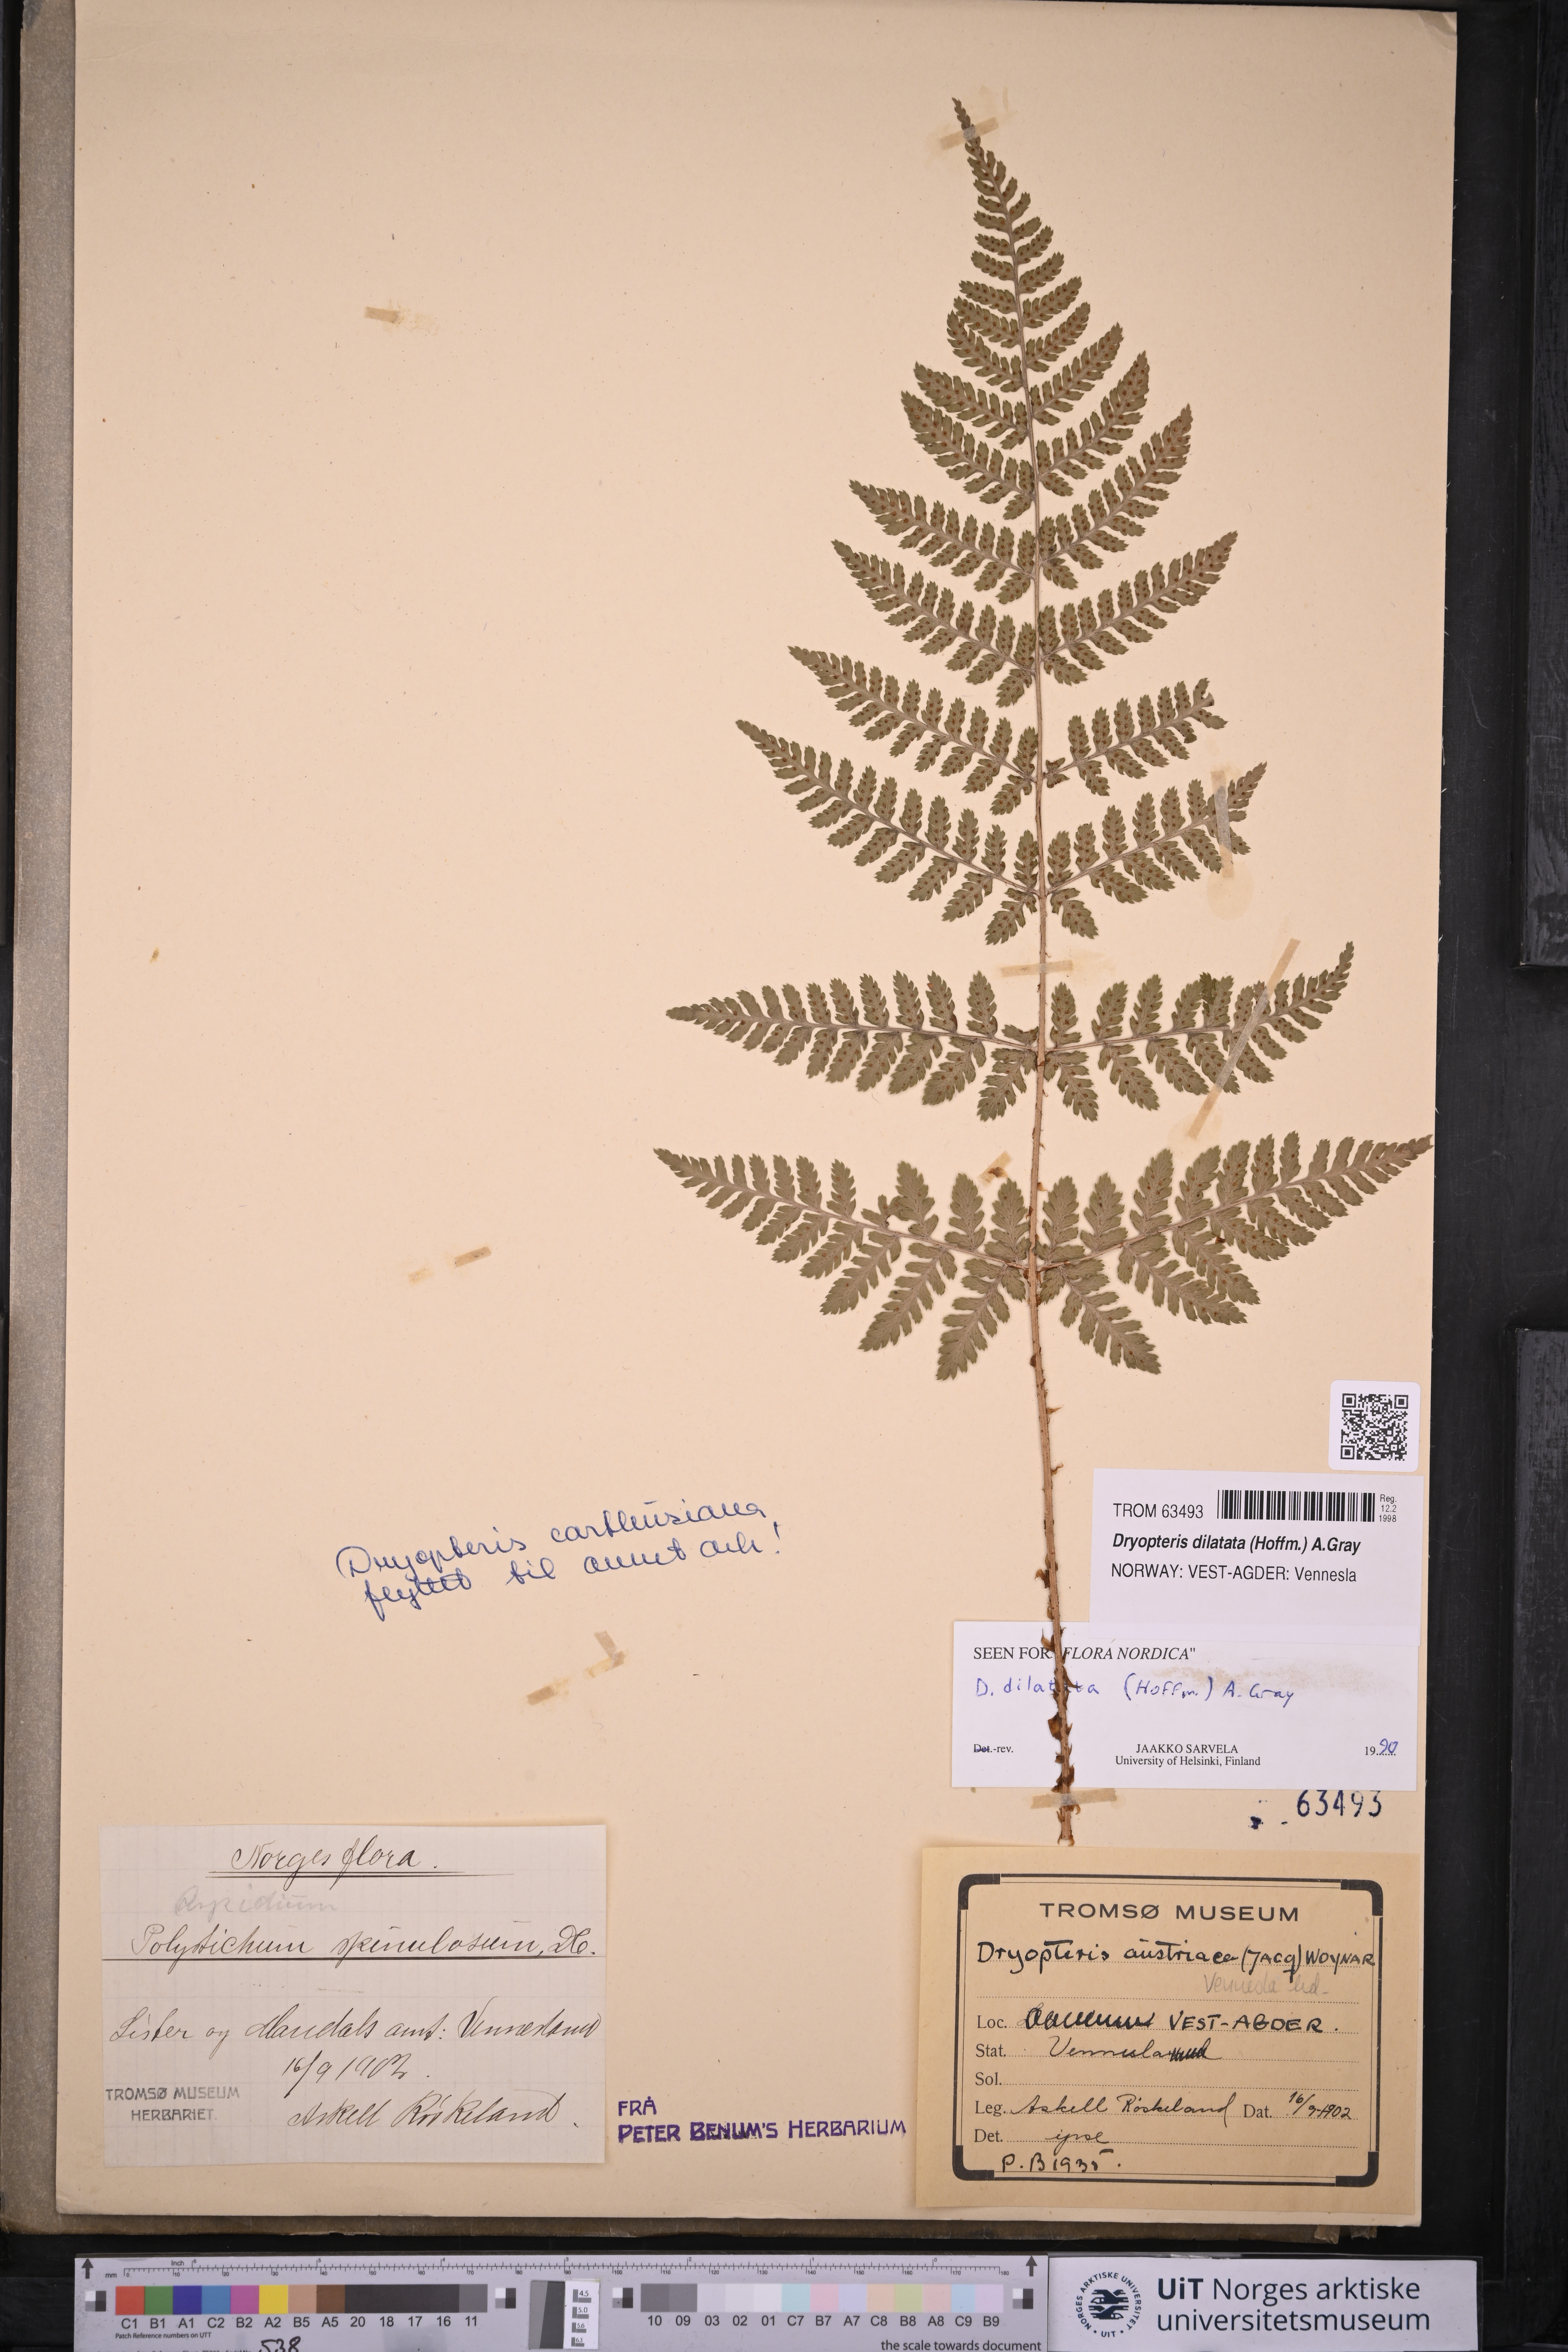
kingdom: Plantae
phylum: Tracheophyta
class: Polypodiopsida
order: Polypodiales
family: Dryopteridaceae
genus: Dryopteris
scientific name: Dryopteris dilatata
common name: Broad buckler-fern
